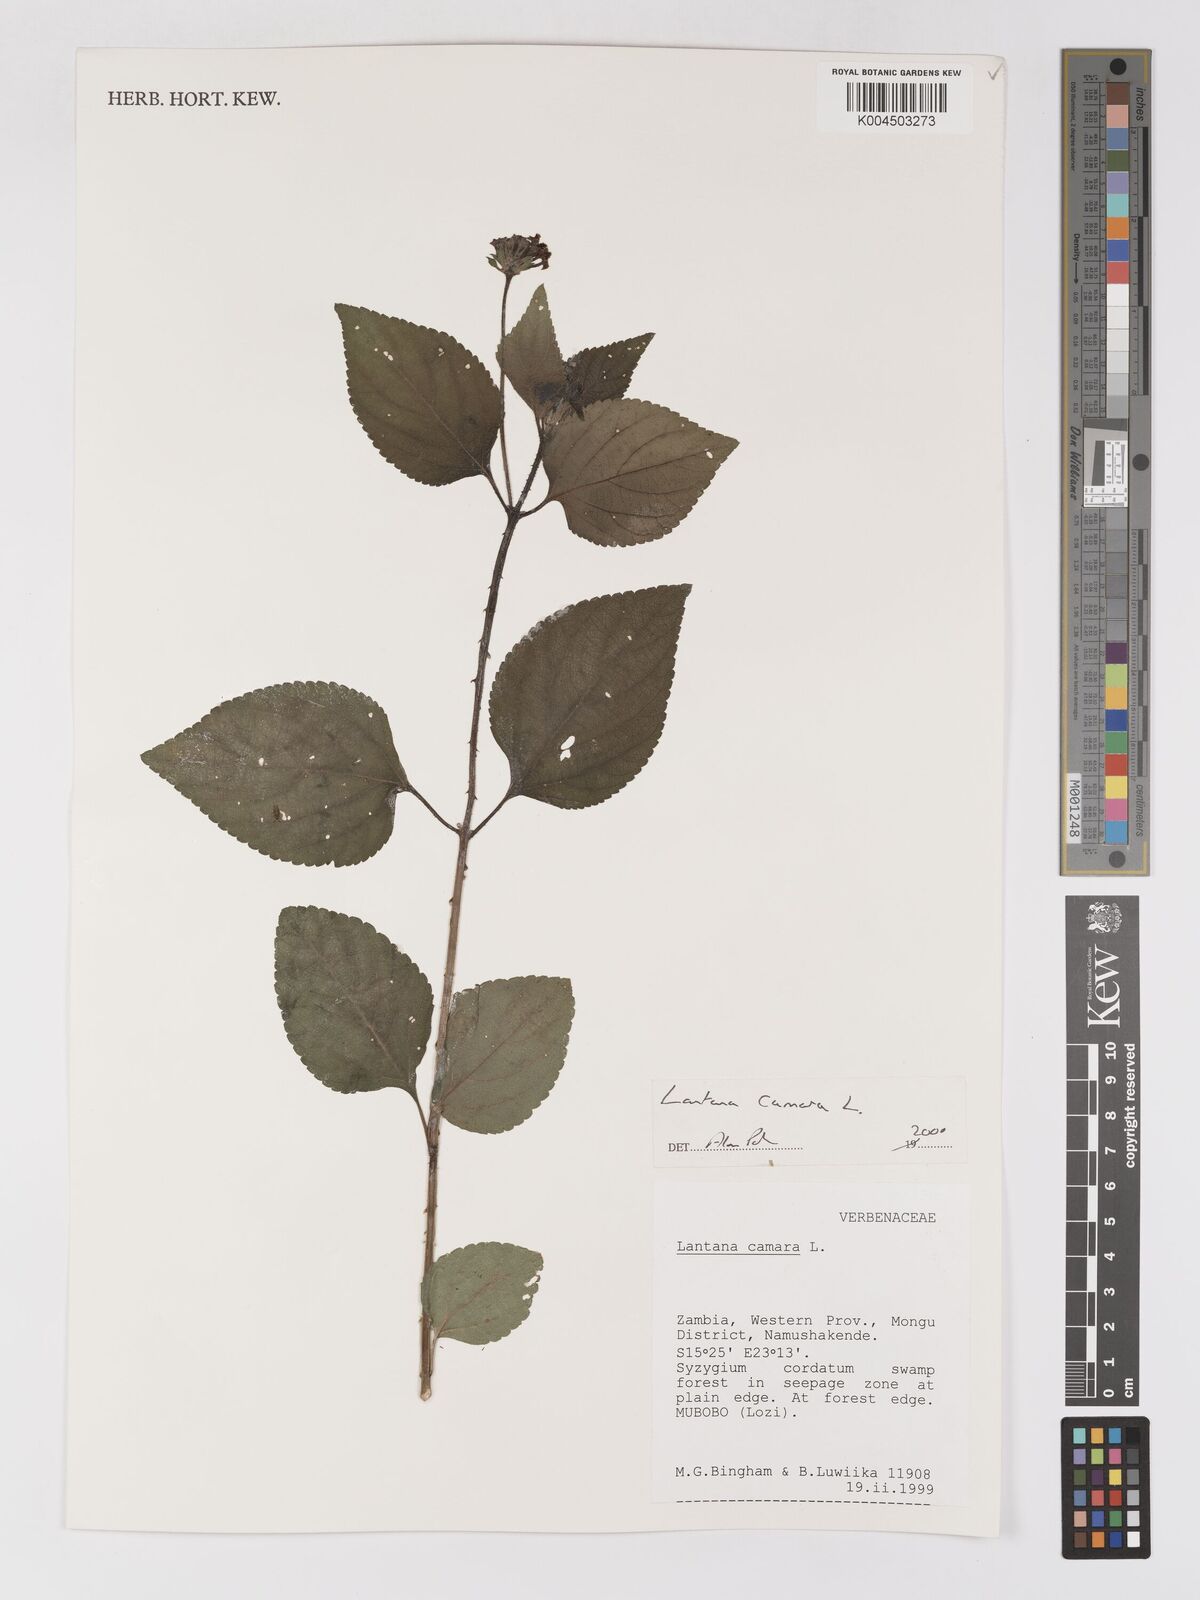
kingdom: Plantae
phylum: Tracheophyta
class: Magnoliopsida
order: Lamiales
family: Verbenaceae
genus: Lantana
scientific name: Lantana camara
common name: Lantana
